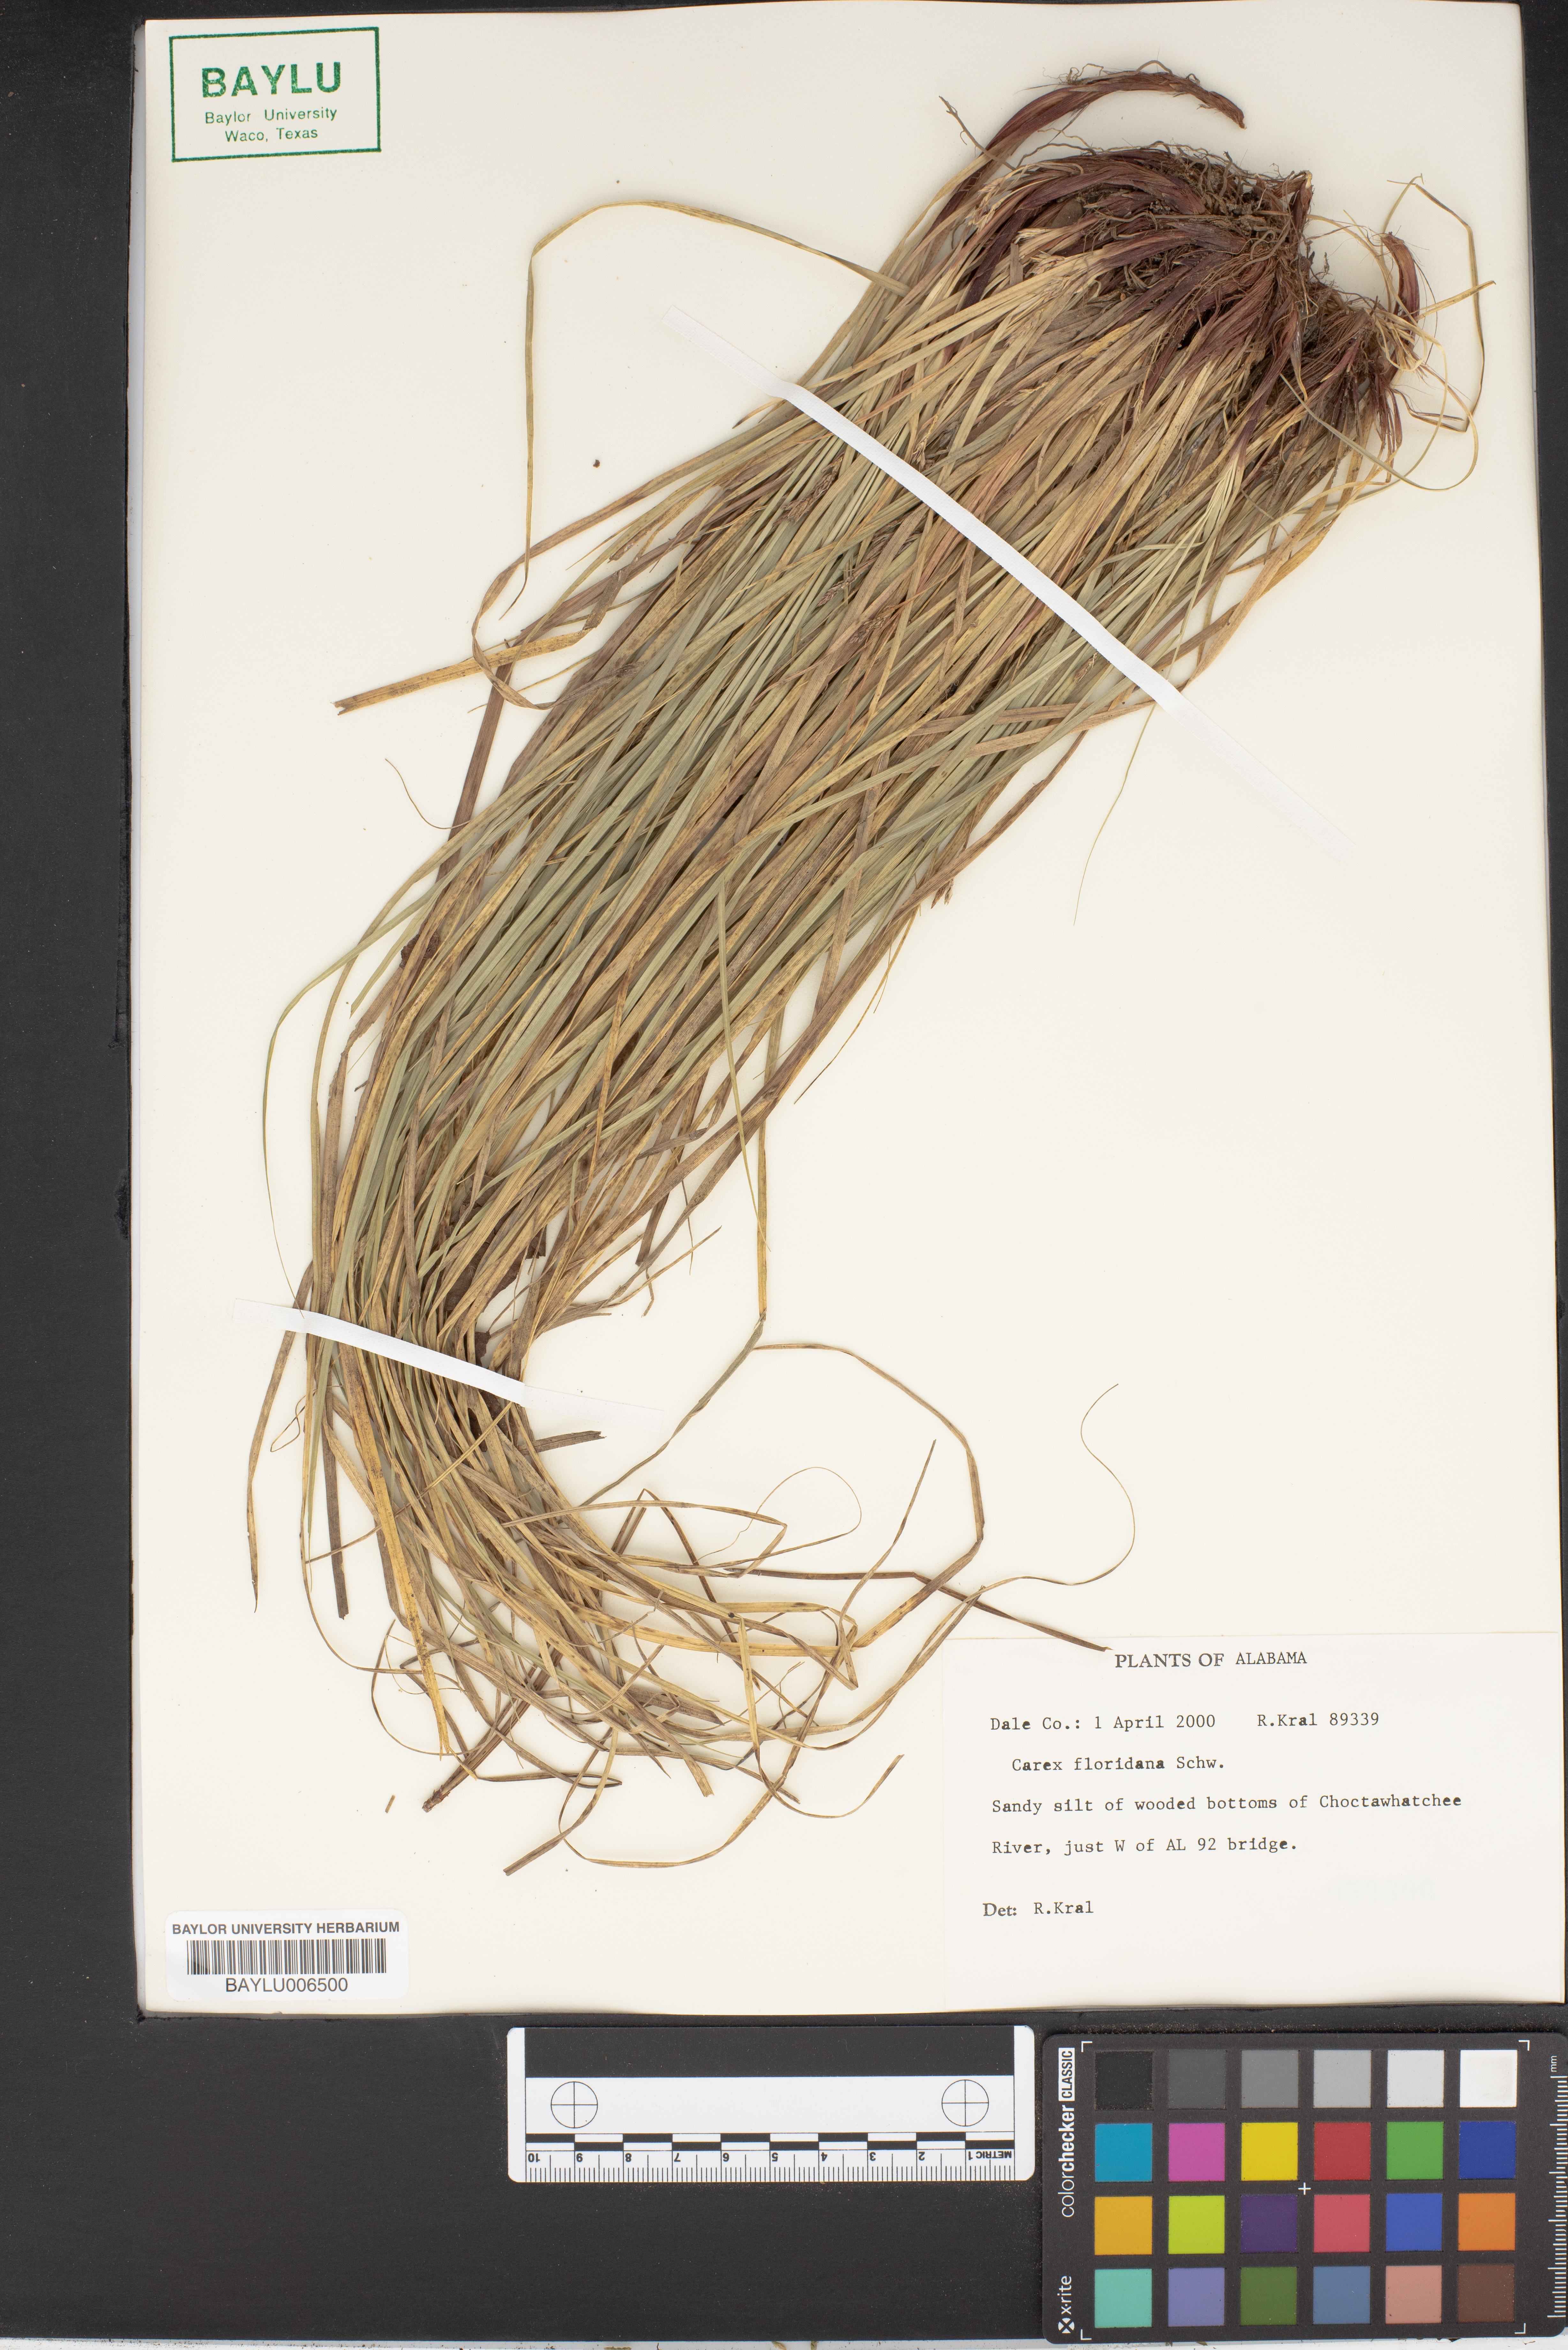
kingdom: Plantae
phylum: Tracheophyta
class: Liliopsida
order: Poales
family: Cyperaceae
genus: Carex
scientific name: Carex floridana
